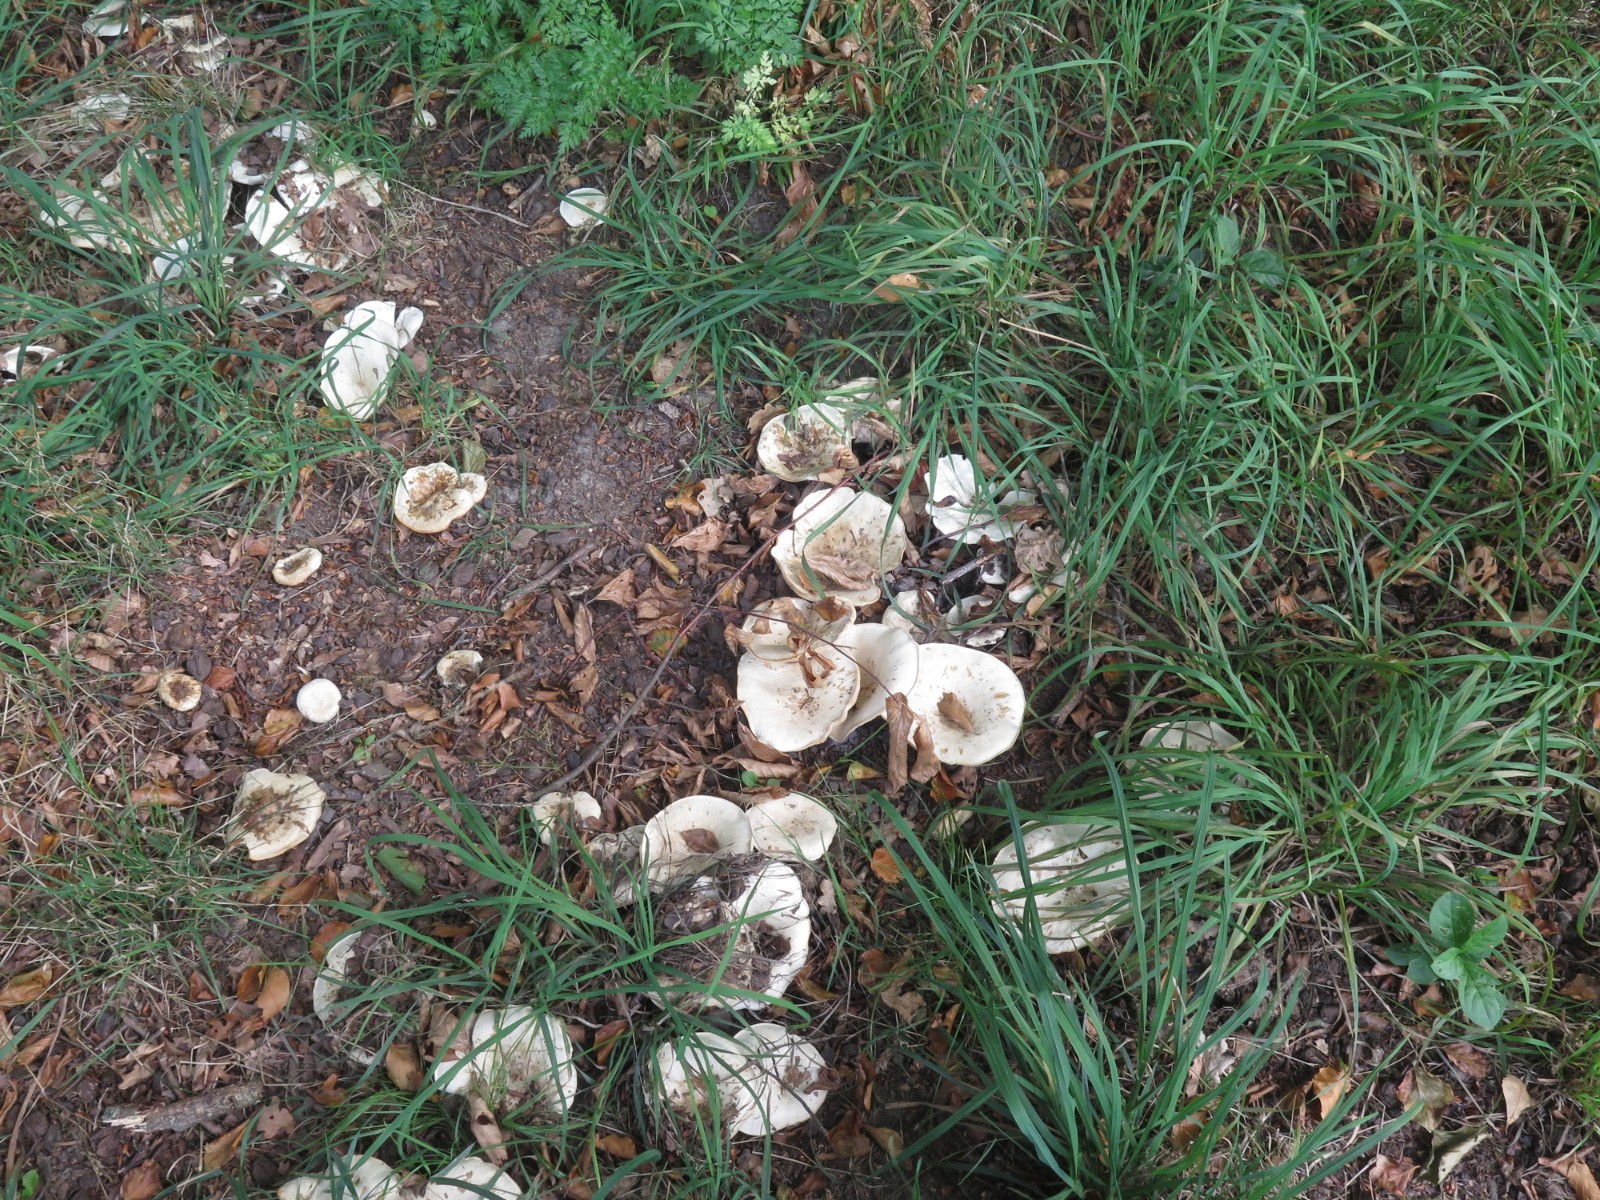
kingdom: Fungi
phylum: Basidiomycota
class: Agaricomycetes
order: Russulales
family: Russulaceae
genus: Russula
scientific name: Russula delica
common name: almindelig tragt-skørhat
